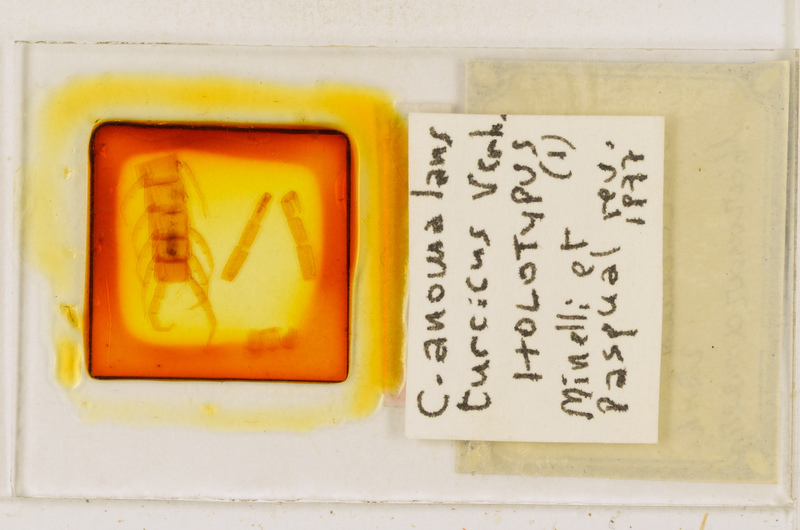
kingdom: Animalia
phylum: Arthropoda
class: Chilopoda
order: Scolopendromorpha
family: Cryptopidae
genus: Cryptops
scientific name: Cryptops anomalans
